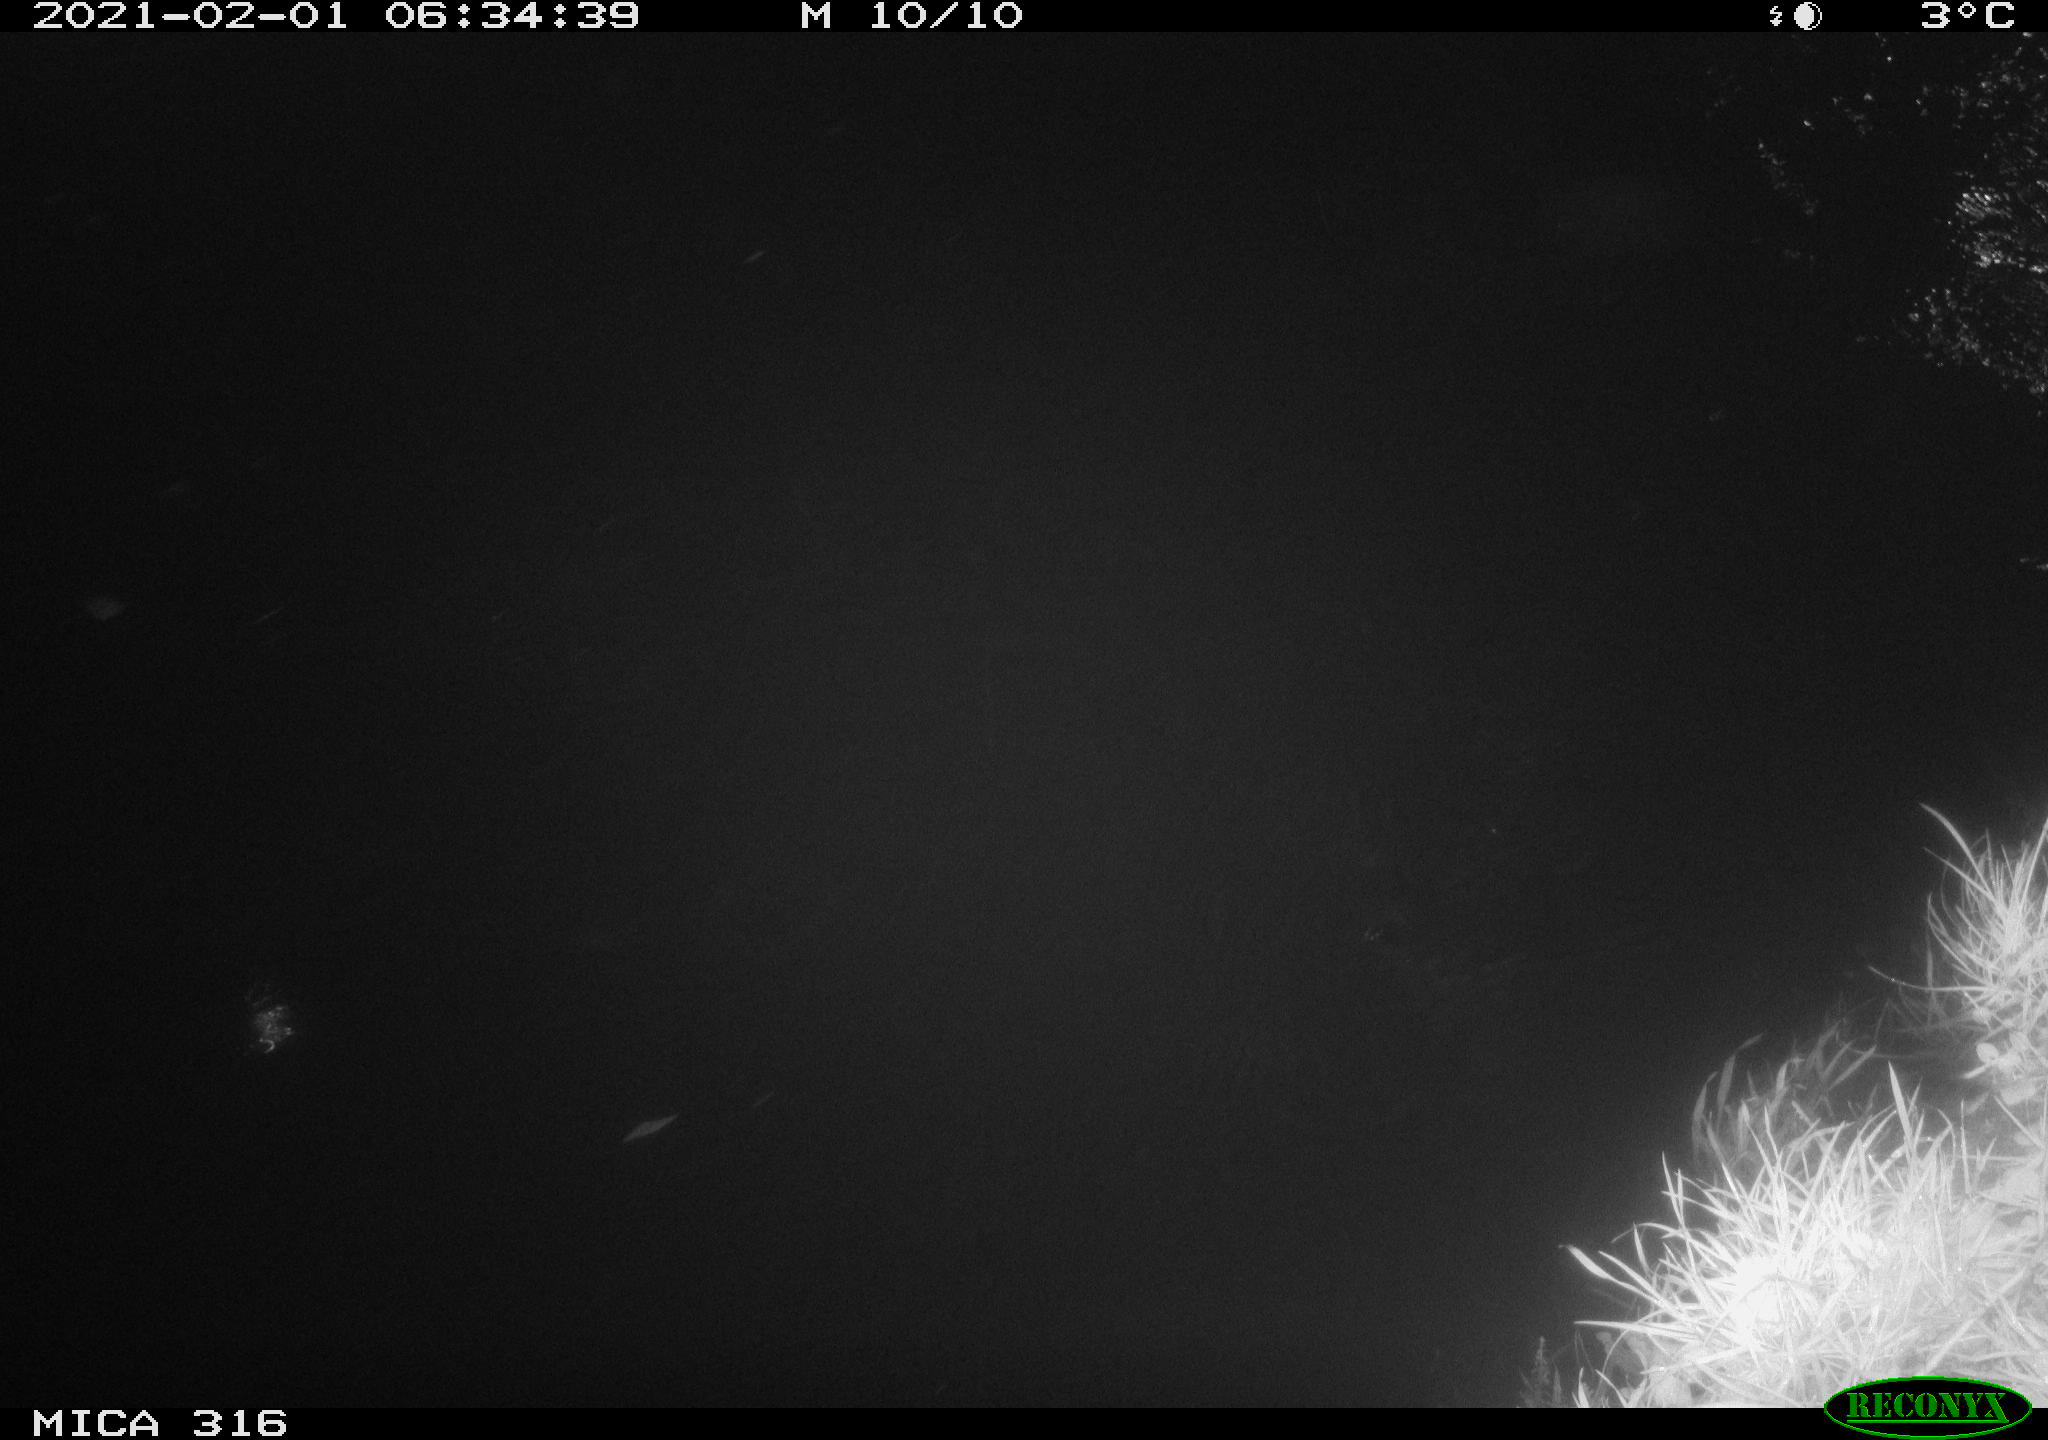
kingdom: Animalia
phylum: Chordata
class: Aves
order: Anseriformes
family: Anatidae
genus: Anas
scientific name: Anas platyrhynchos
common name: Mallard
